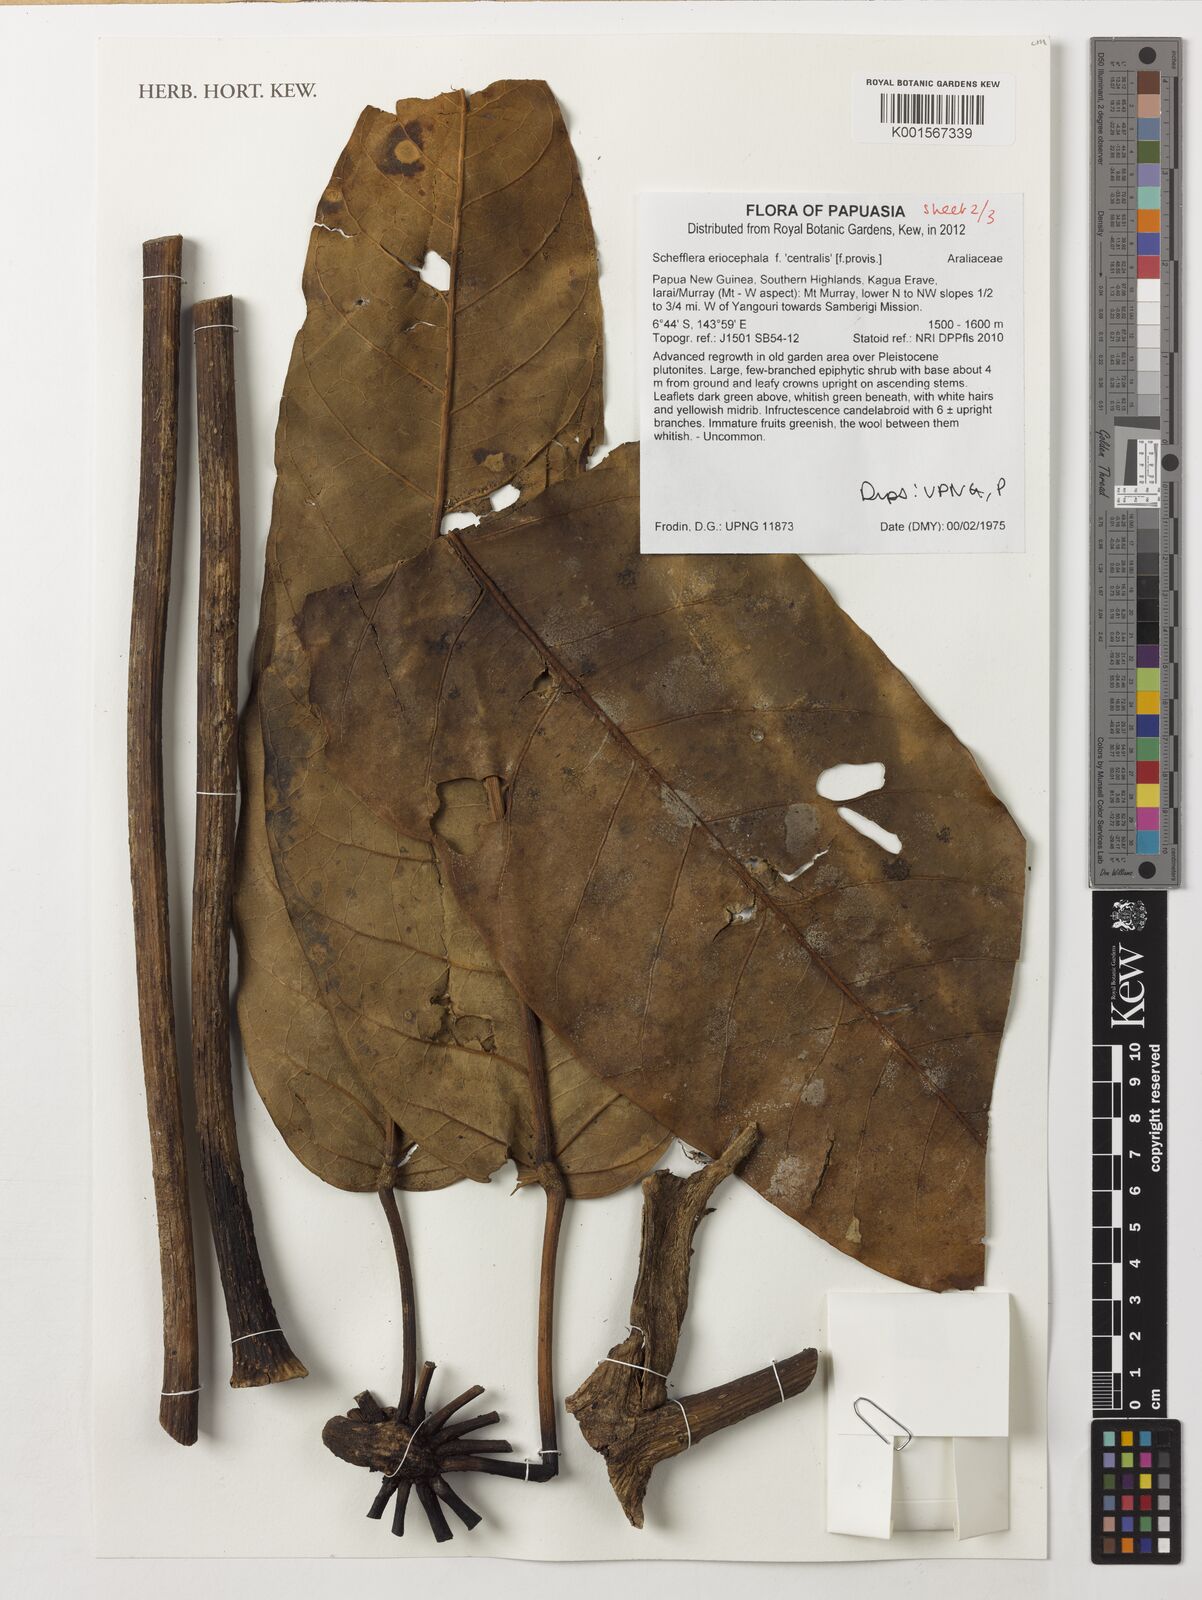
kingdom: Plantae
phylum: Tracheophyta
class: Magnoliopsida
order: Apiales
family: Araliaceae
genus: Heptapleurum
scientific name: Heptapleurum eriocephalum
